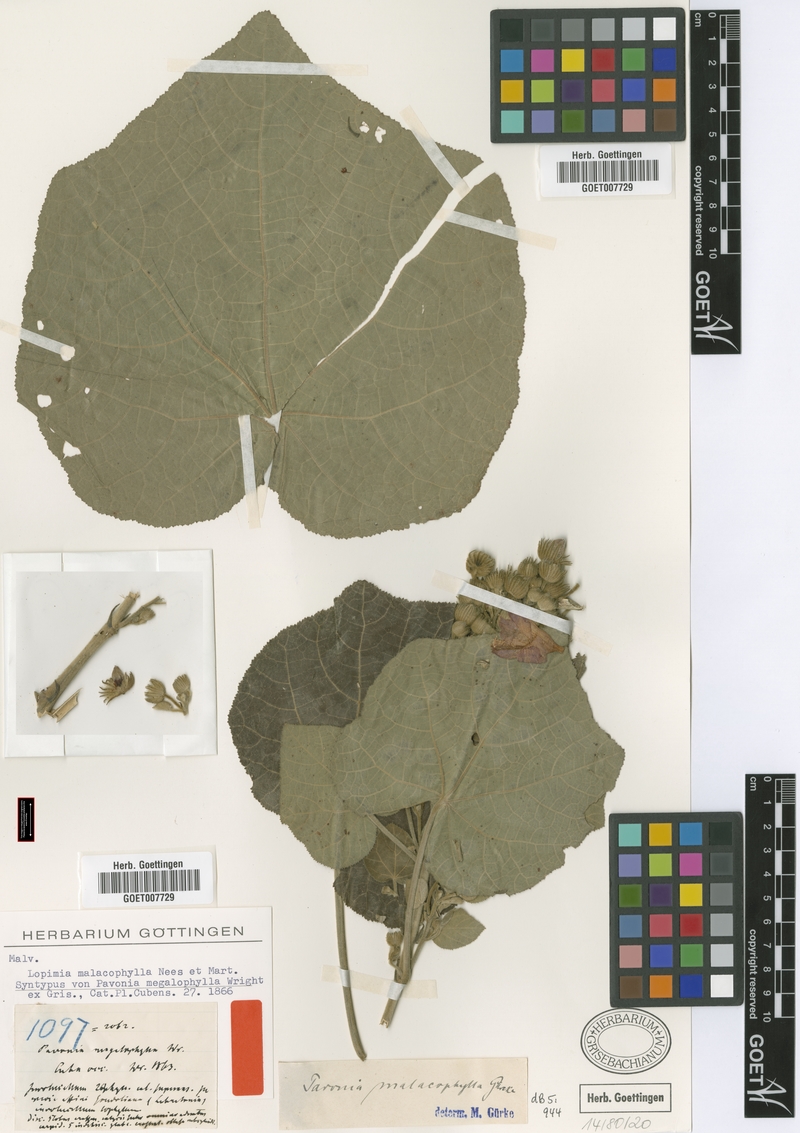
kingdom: Plantae
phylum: Tracheophyta
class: Magnoliopsida
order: Malvales
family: Malvaceae
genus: Pavonia
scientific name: Pavonia malacophylla
